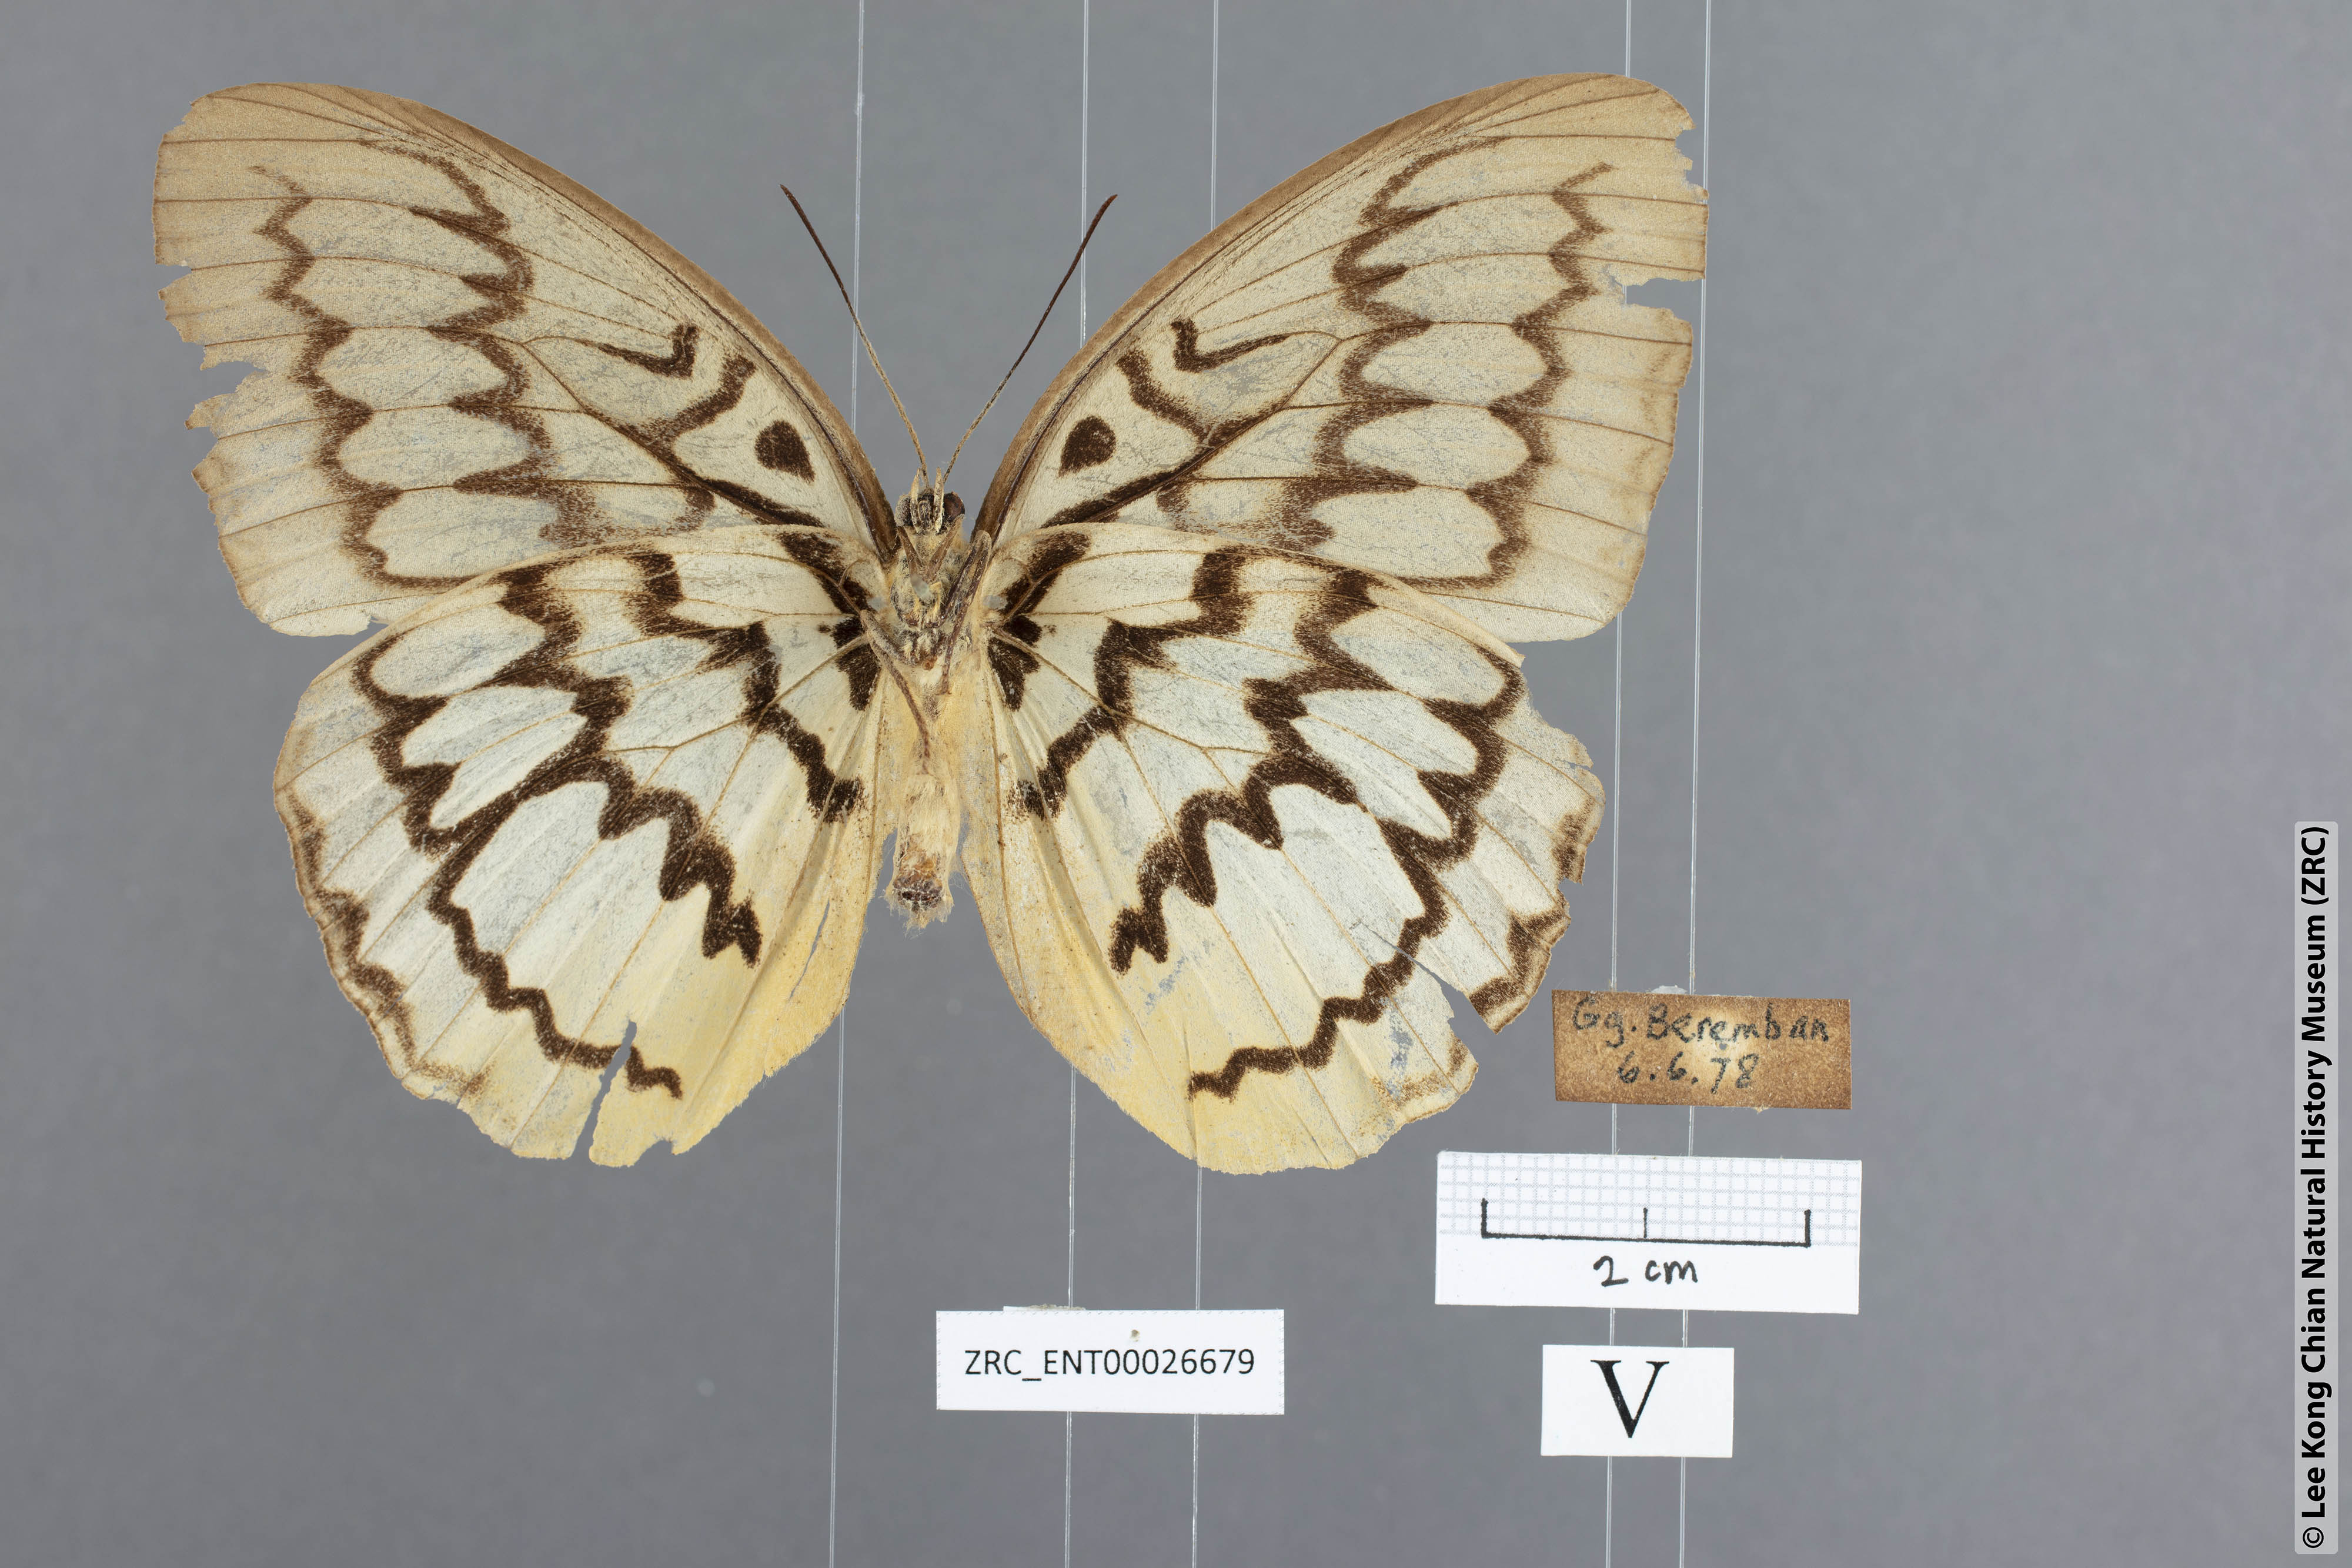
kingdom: Animalia
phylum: Arthropoda
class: Insecta
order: Lepidoptera
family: Nymphalidae
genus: Faunis
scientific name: Faunis Melanocyma faunula
